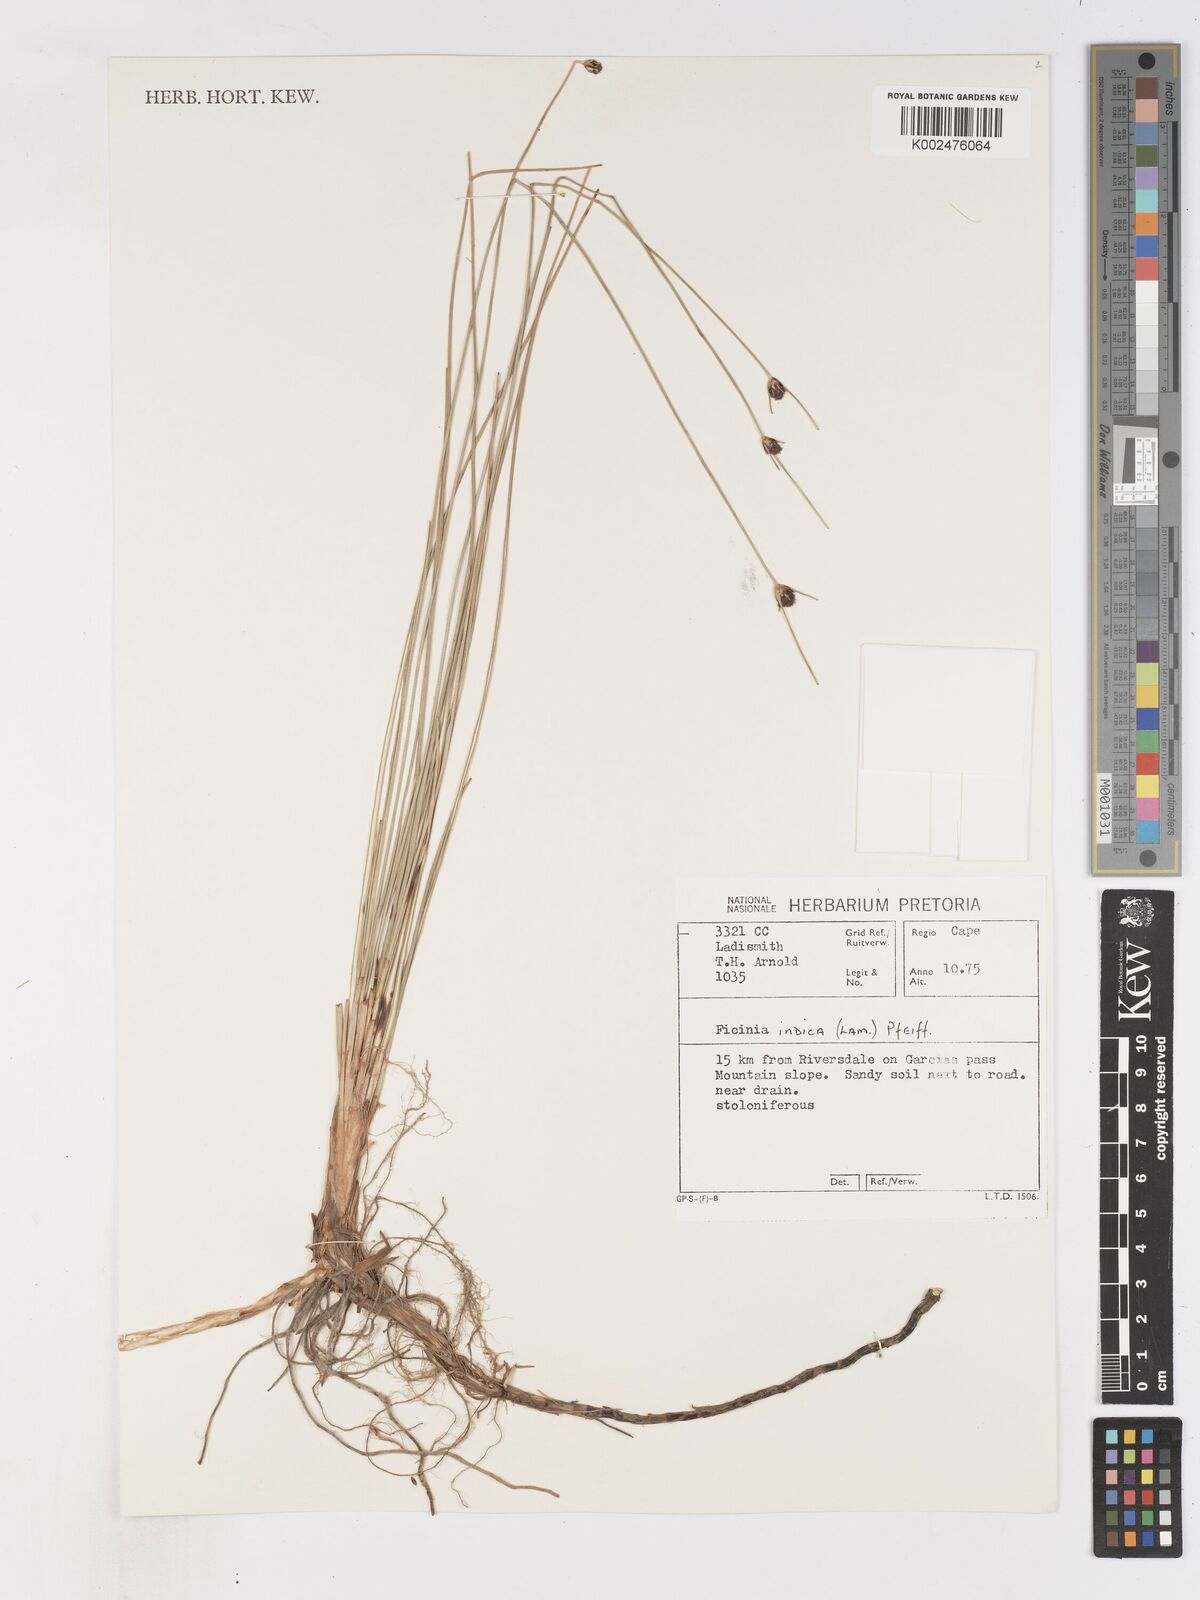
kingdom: Plantae
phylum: Tracheophyta
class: Liliopsida
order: Poales
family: Cyperaceae
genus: Ficinia
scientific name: Ficinia indica
